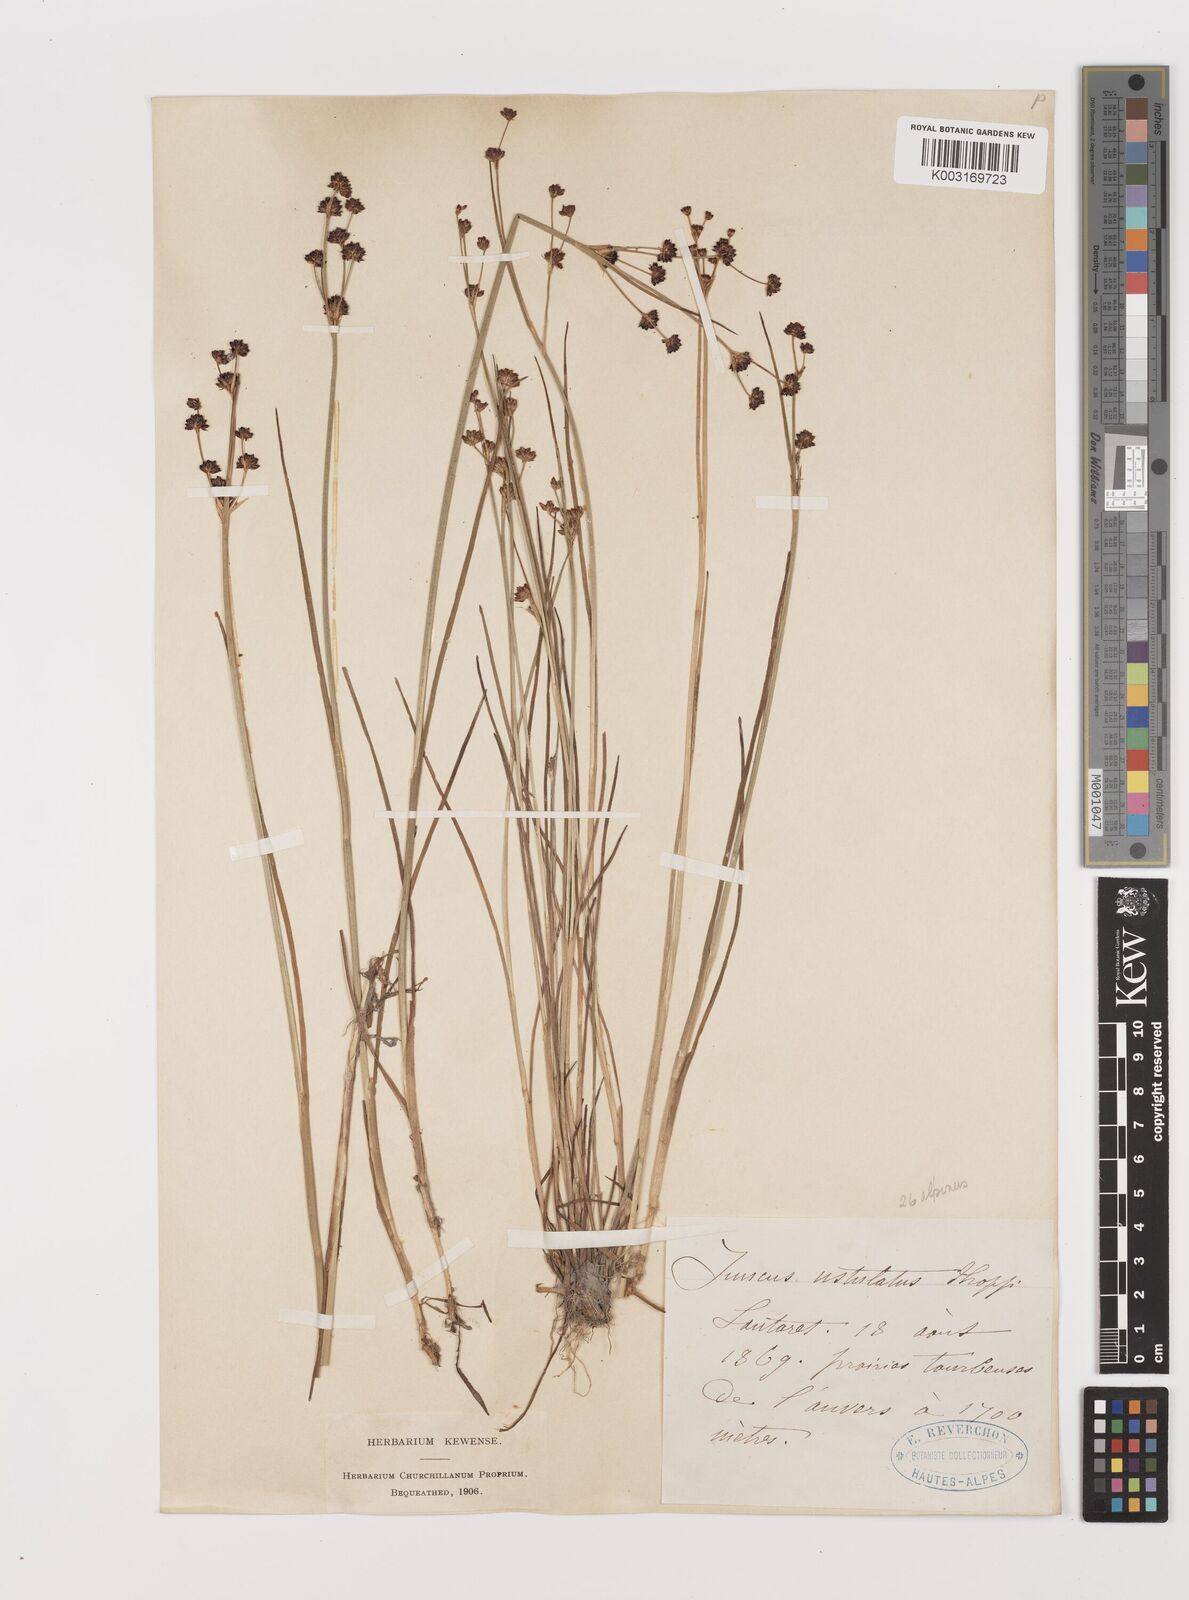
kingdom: Plantae
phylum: Tracheophyta
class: Liliopsida
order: Poales
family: Juncaceae
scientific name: Juncaceae
